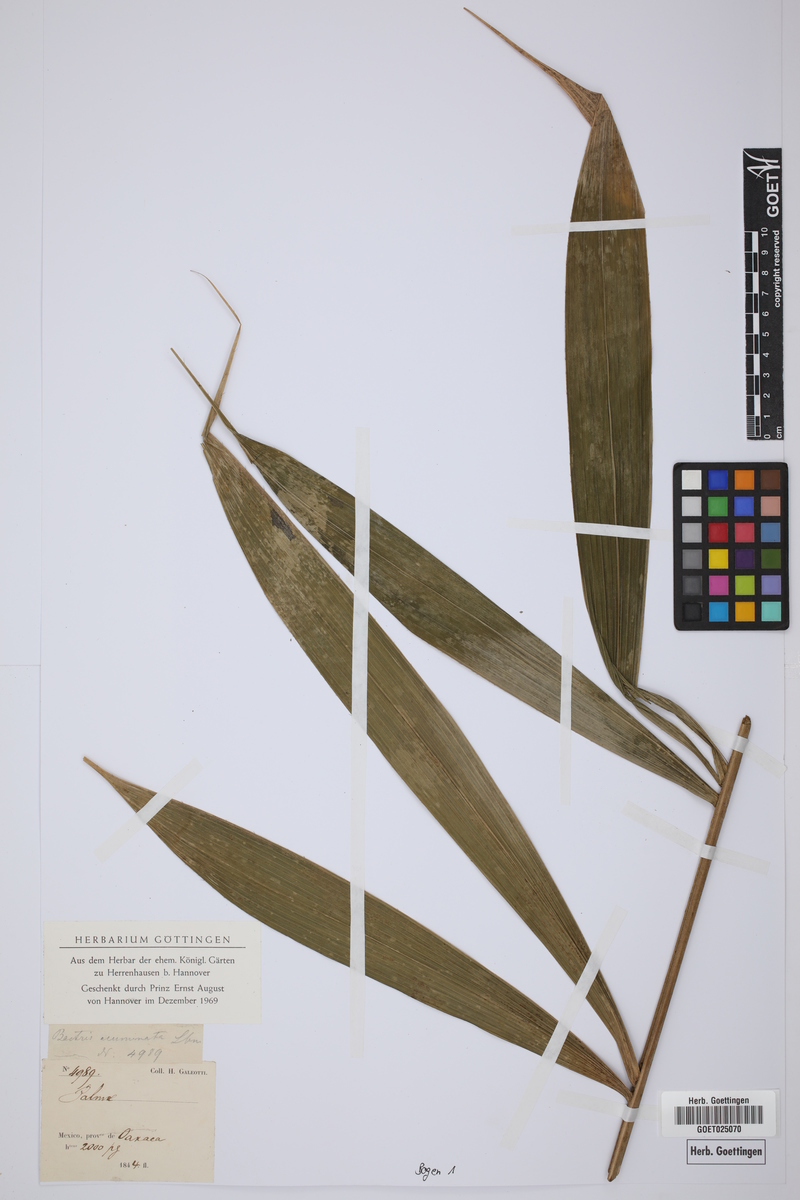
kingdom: Plantae
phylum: Tracheophyta
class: Liliopsida
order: Arecales
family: Arecaceae
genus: Bactris
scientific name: Bactris mexicana
